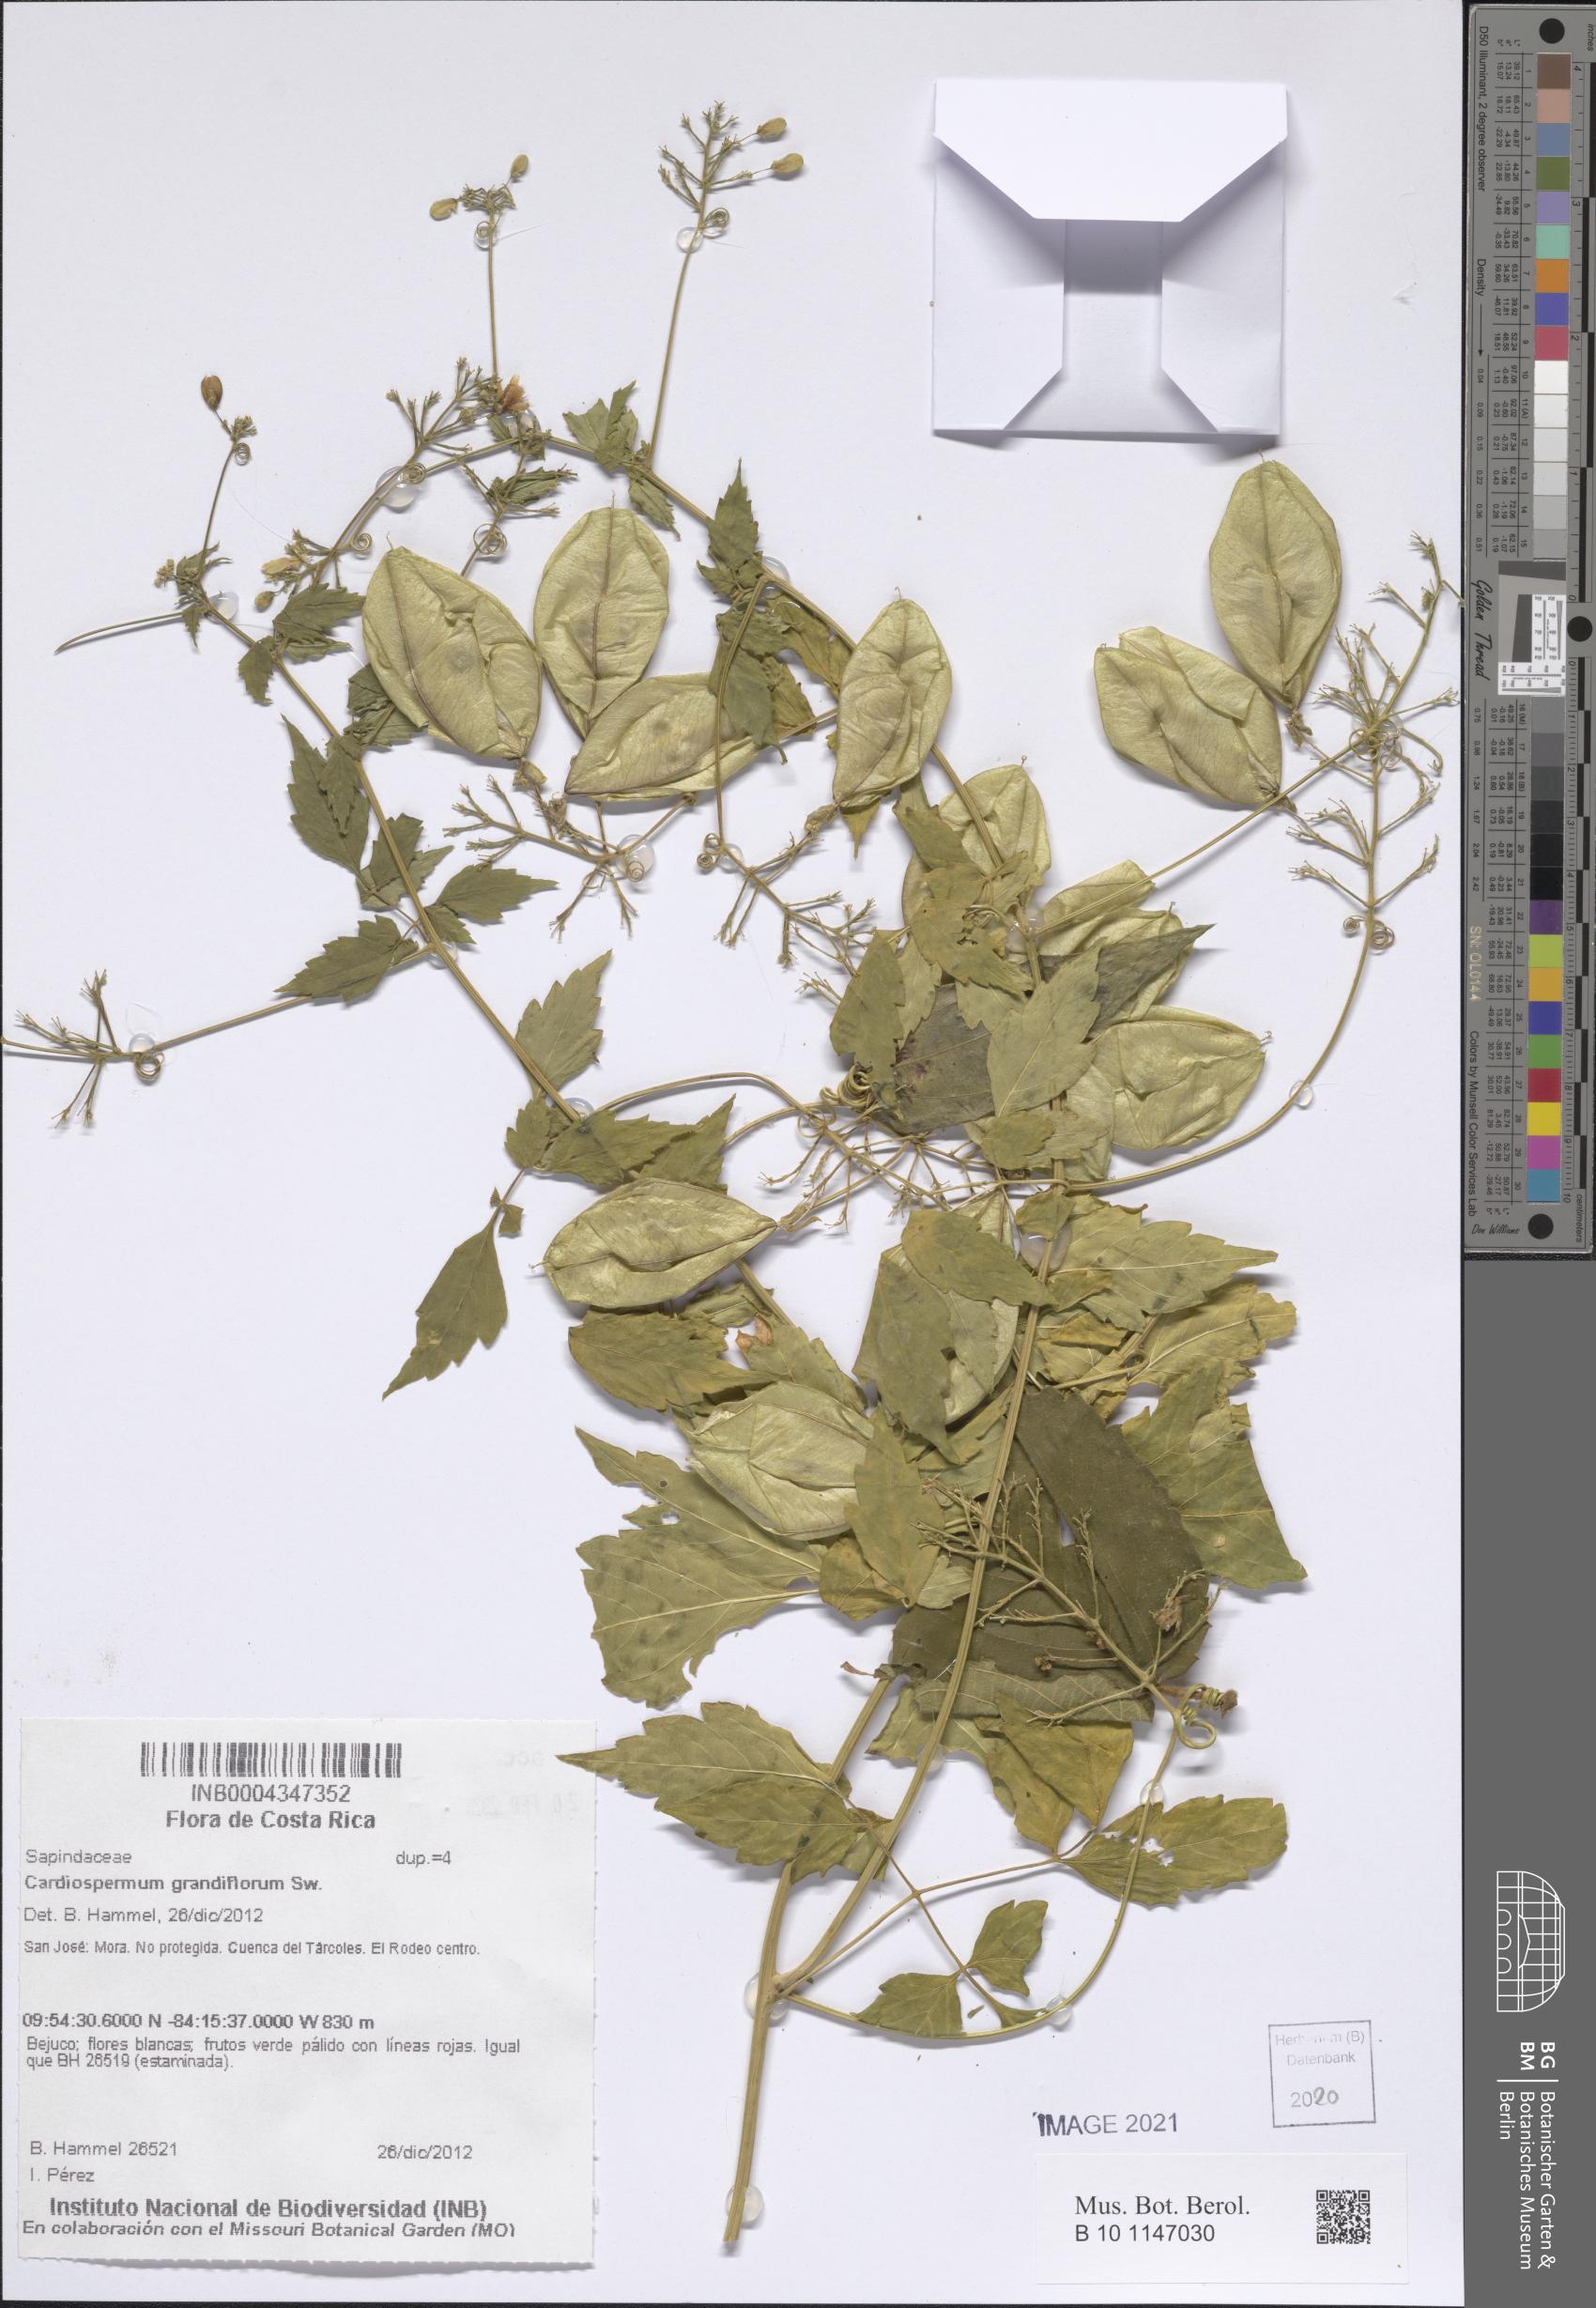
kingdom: Plantae
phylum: Tracheophyta
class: Magnoliopsida
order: Sapindales
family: Sapindaceae
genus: Cardiospermum
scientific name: Cardiospermum grandiflorum
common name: Balloon vine
